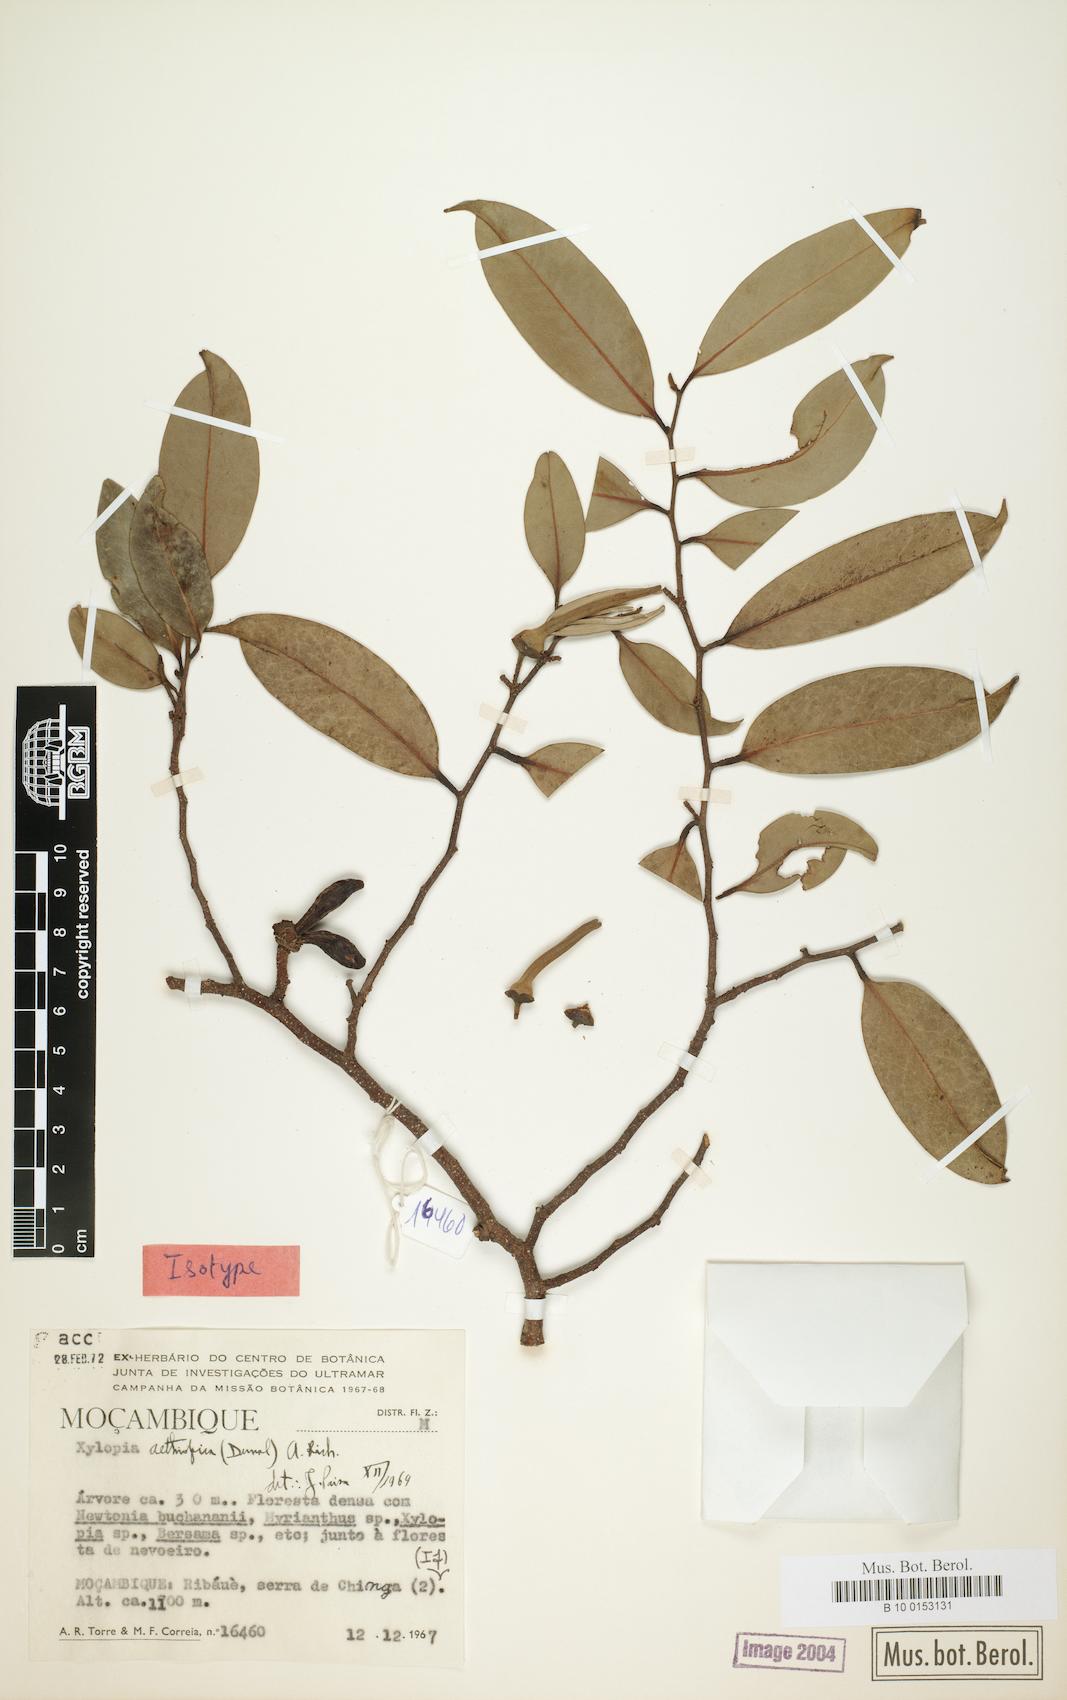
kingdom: Plantae
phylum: Tracheophyta
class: Magnoliopsida
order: Magnoliales
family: Annonaceae
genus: Xylopia
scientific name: Xylopia aethiopica
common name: Ethiopian-pepper
